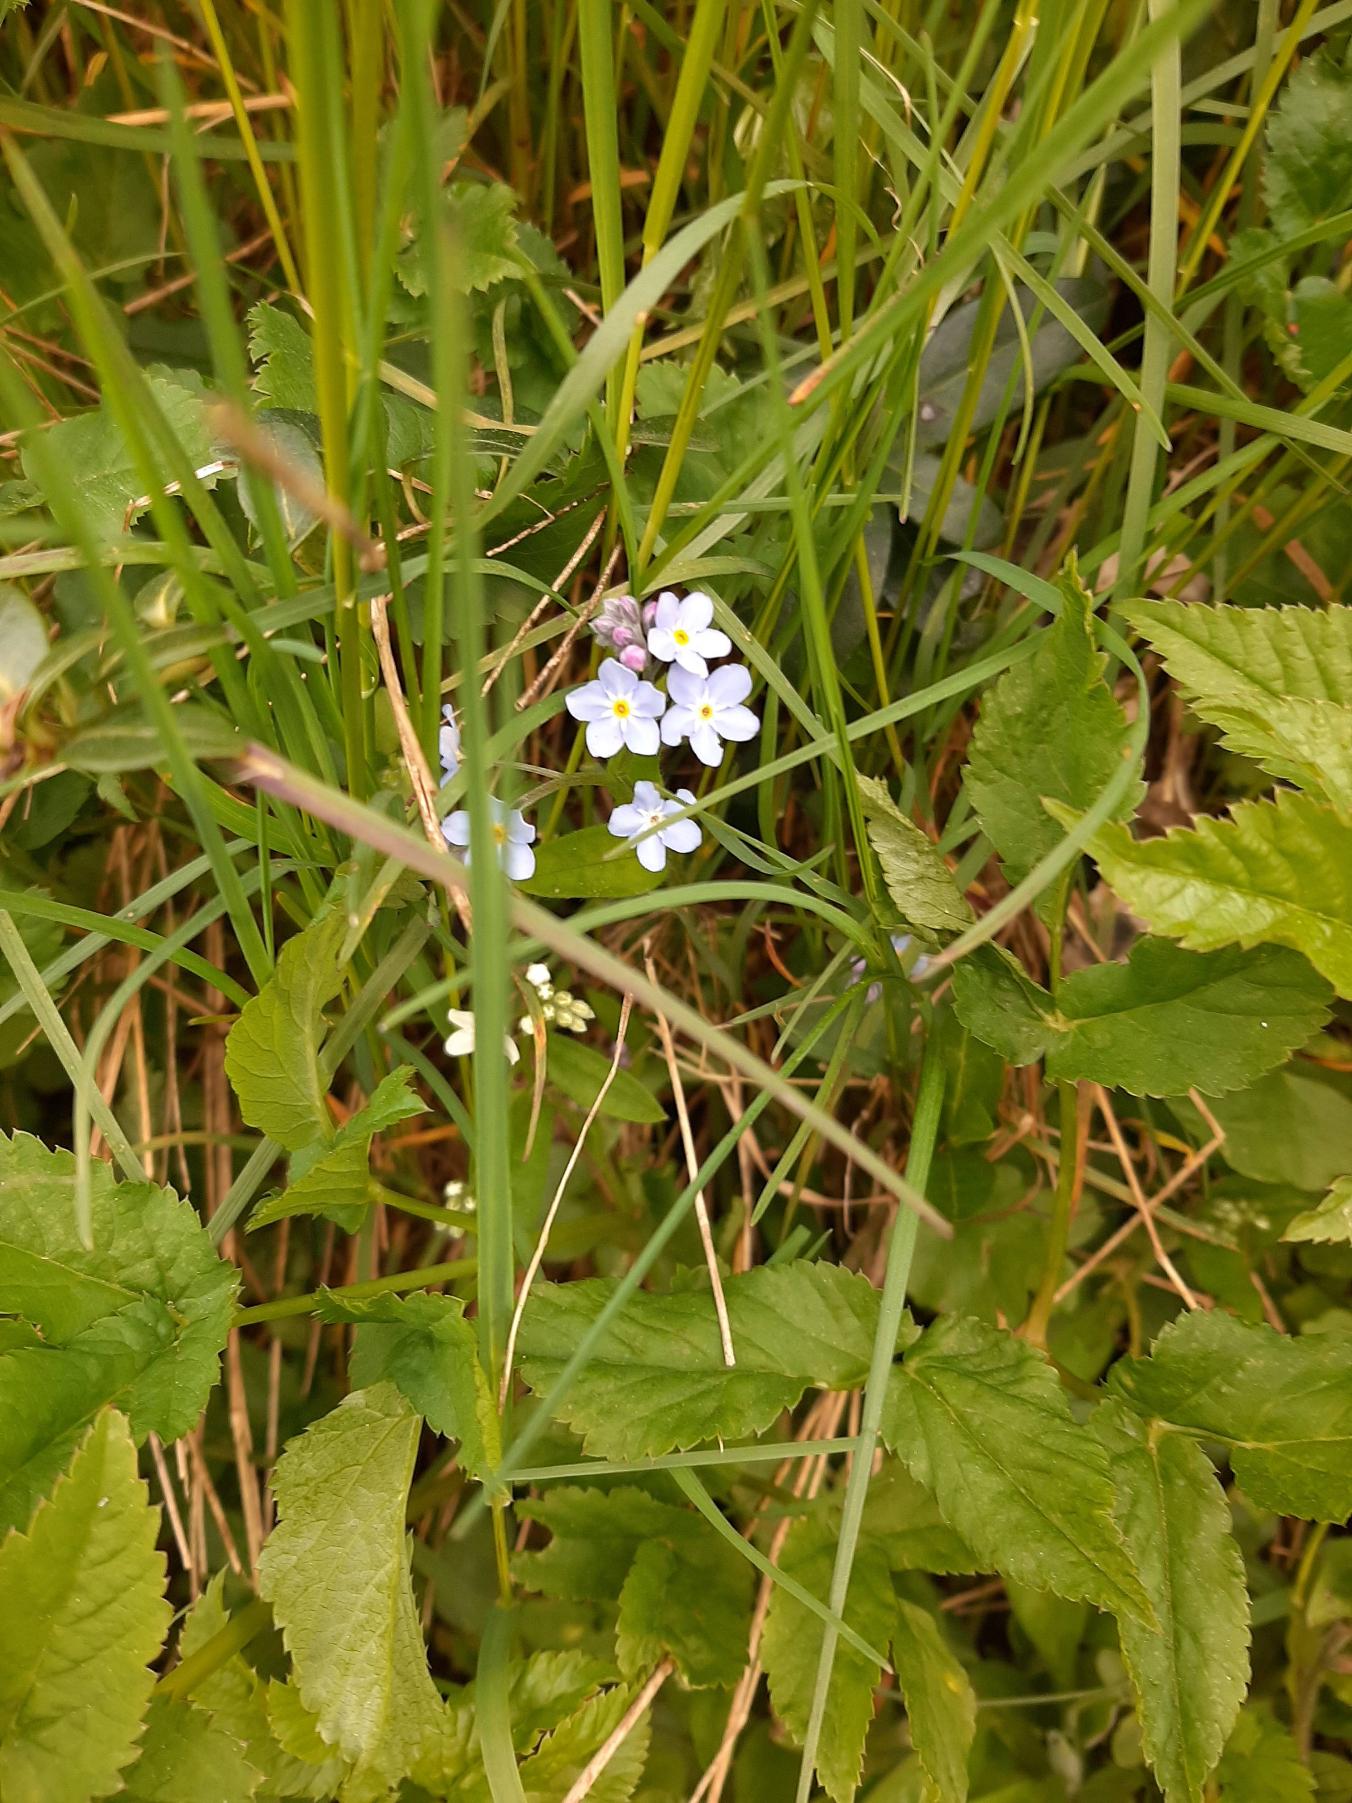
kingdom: Plantae
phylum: Tracheophyta
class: Magnoliopsida
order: Boraginales
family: Boraginaceae
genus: Myosotis
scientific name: Myosotis scorpioides
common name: Eng-forglemmigej
